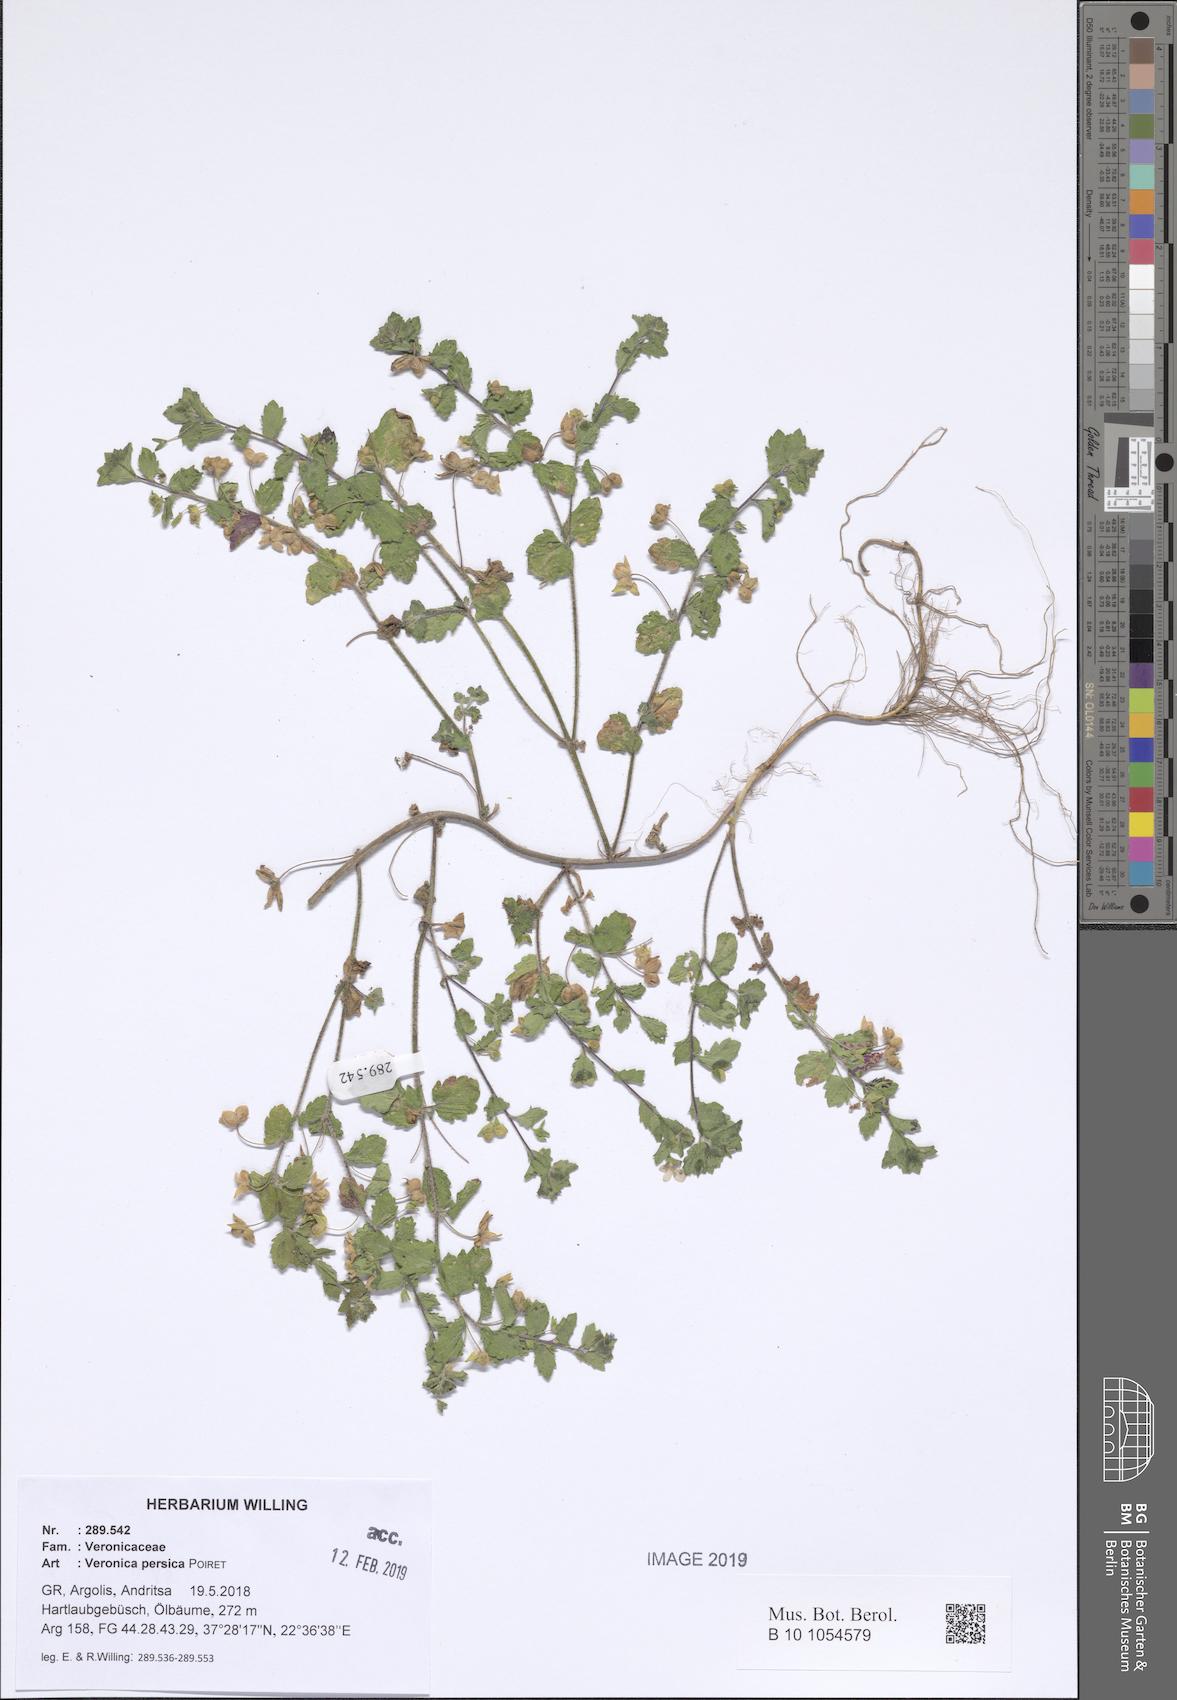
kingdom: Plantae
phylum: Tracheophyta
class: Magnoliopsida
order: Lamiales
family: Plantaginaceae
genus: Veronica
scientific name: Veronica persica
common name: Common field-speedwell
